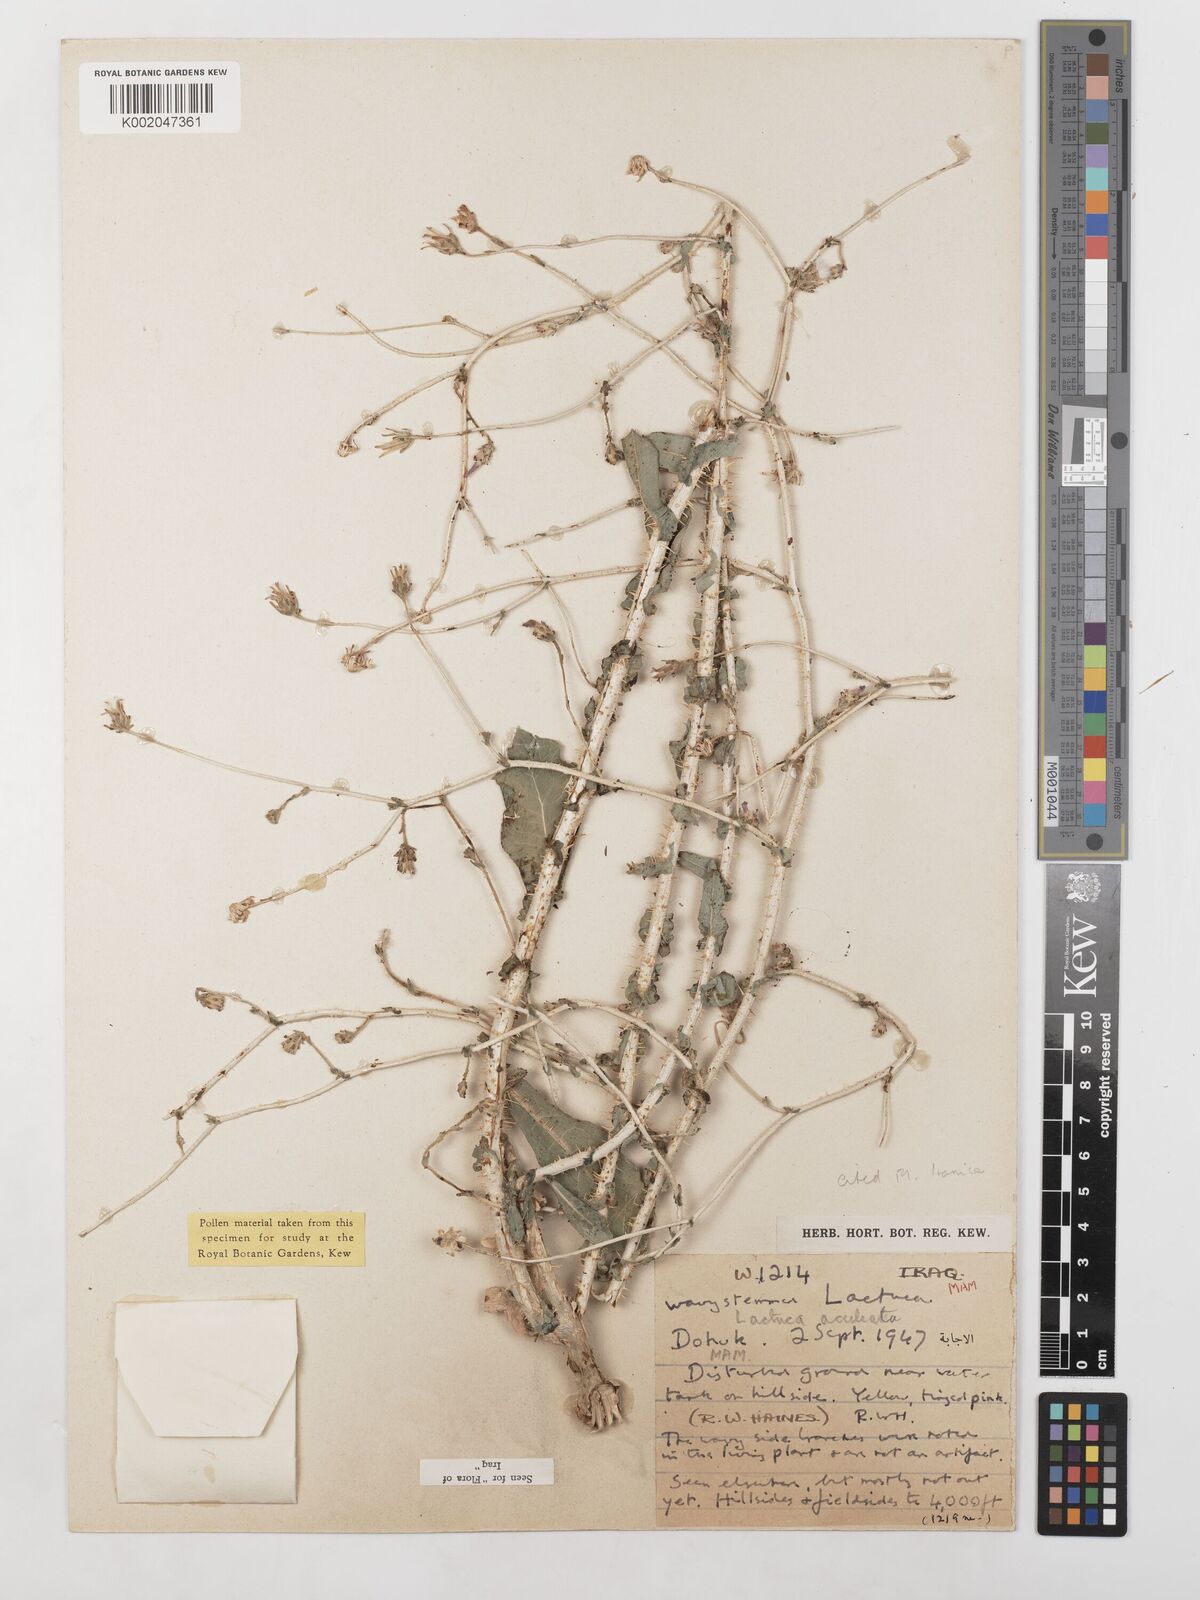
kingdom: Plantae
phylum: Tracheophyta
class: Magnoliopsida
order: Asterales
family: Asteraceae
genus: Lactuca
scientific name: Lactuca aculeata
